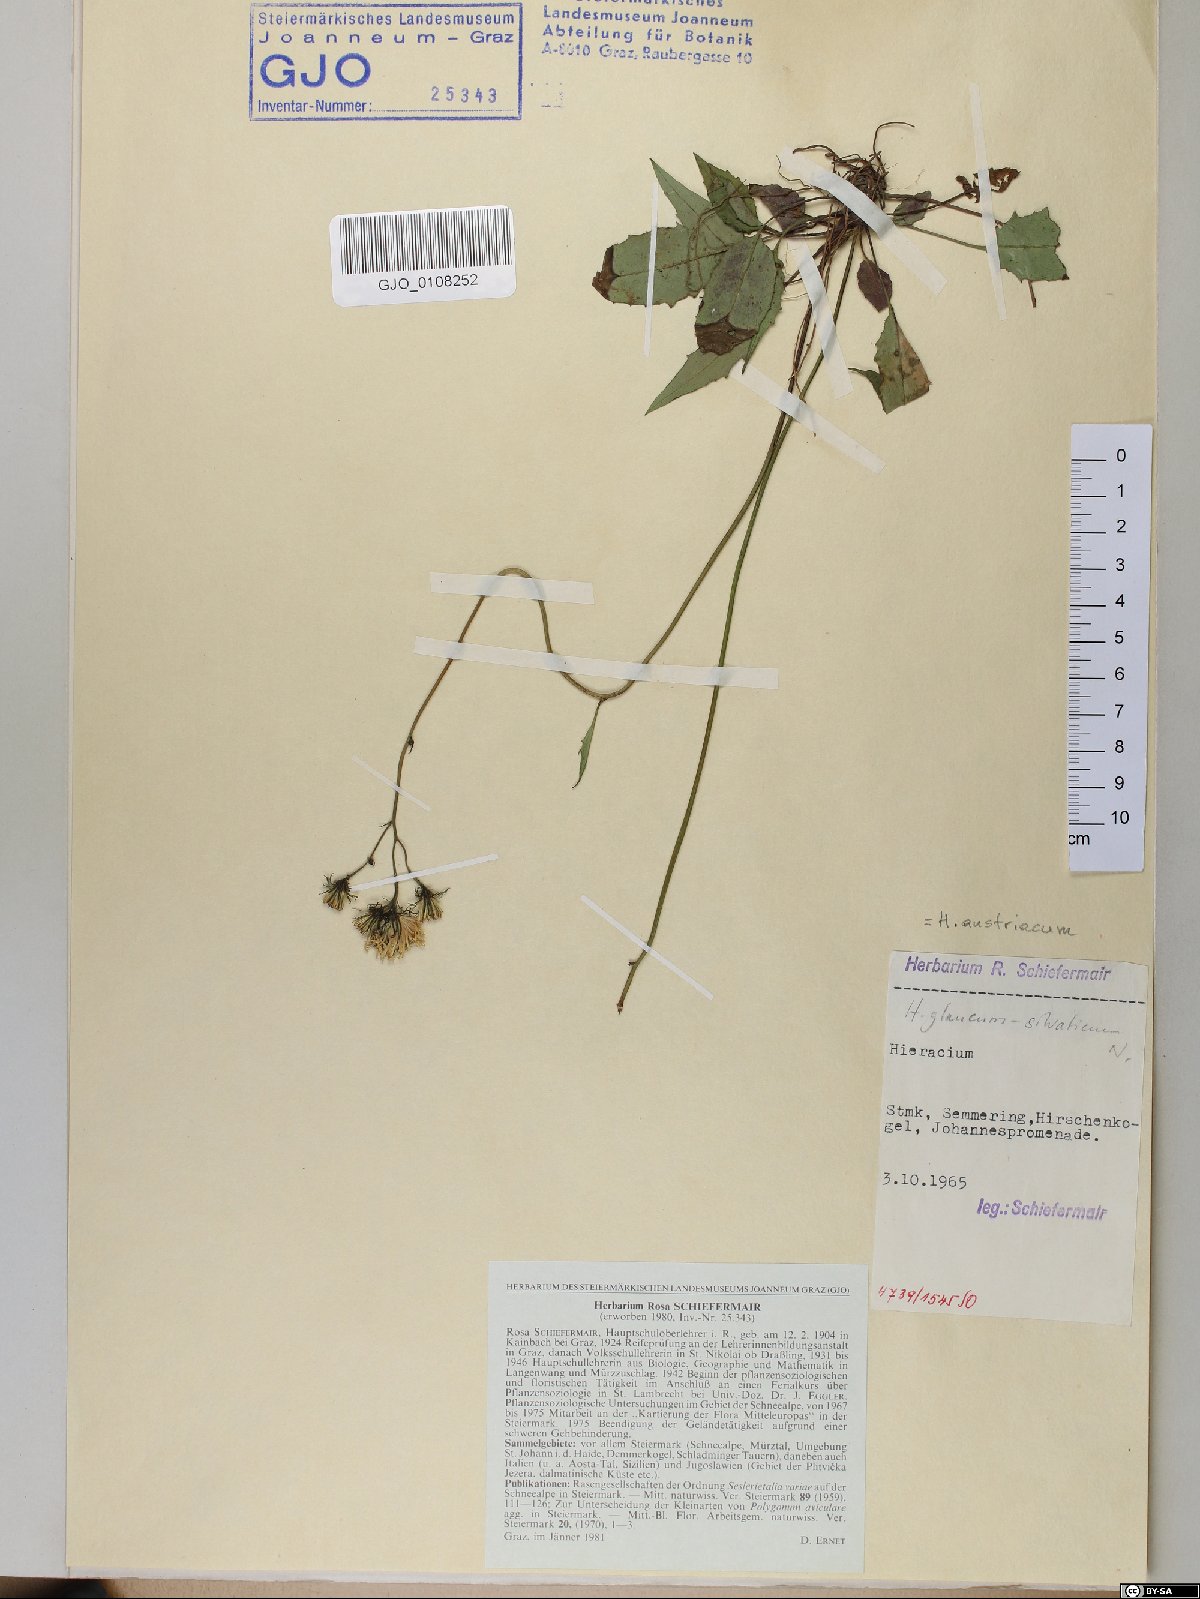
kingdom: Plantae
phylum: Tracheophyta
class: Magnoliopsida
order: Asterales
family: Asteraceae
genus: Hieracium
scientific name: Hieracium austriacum
